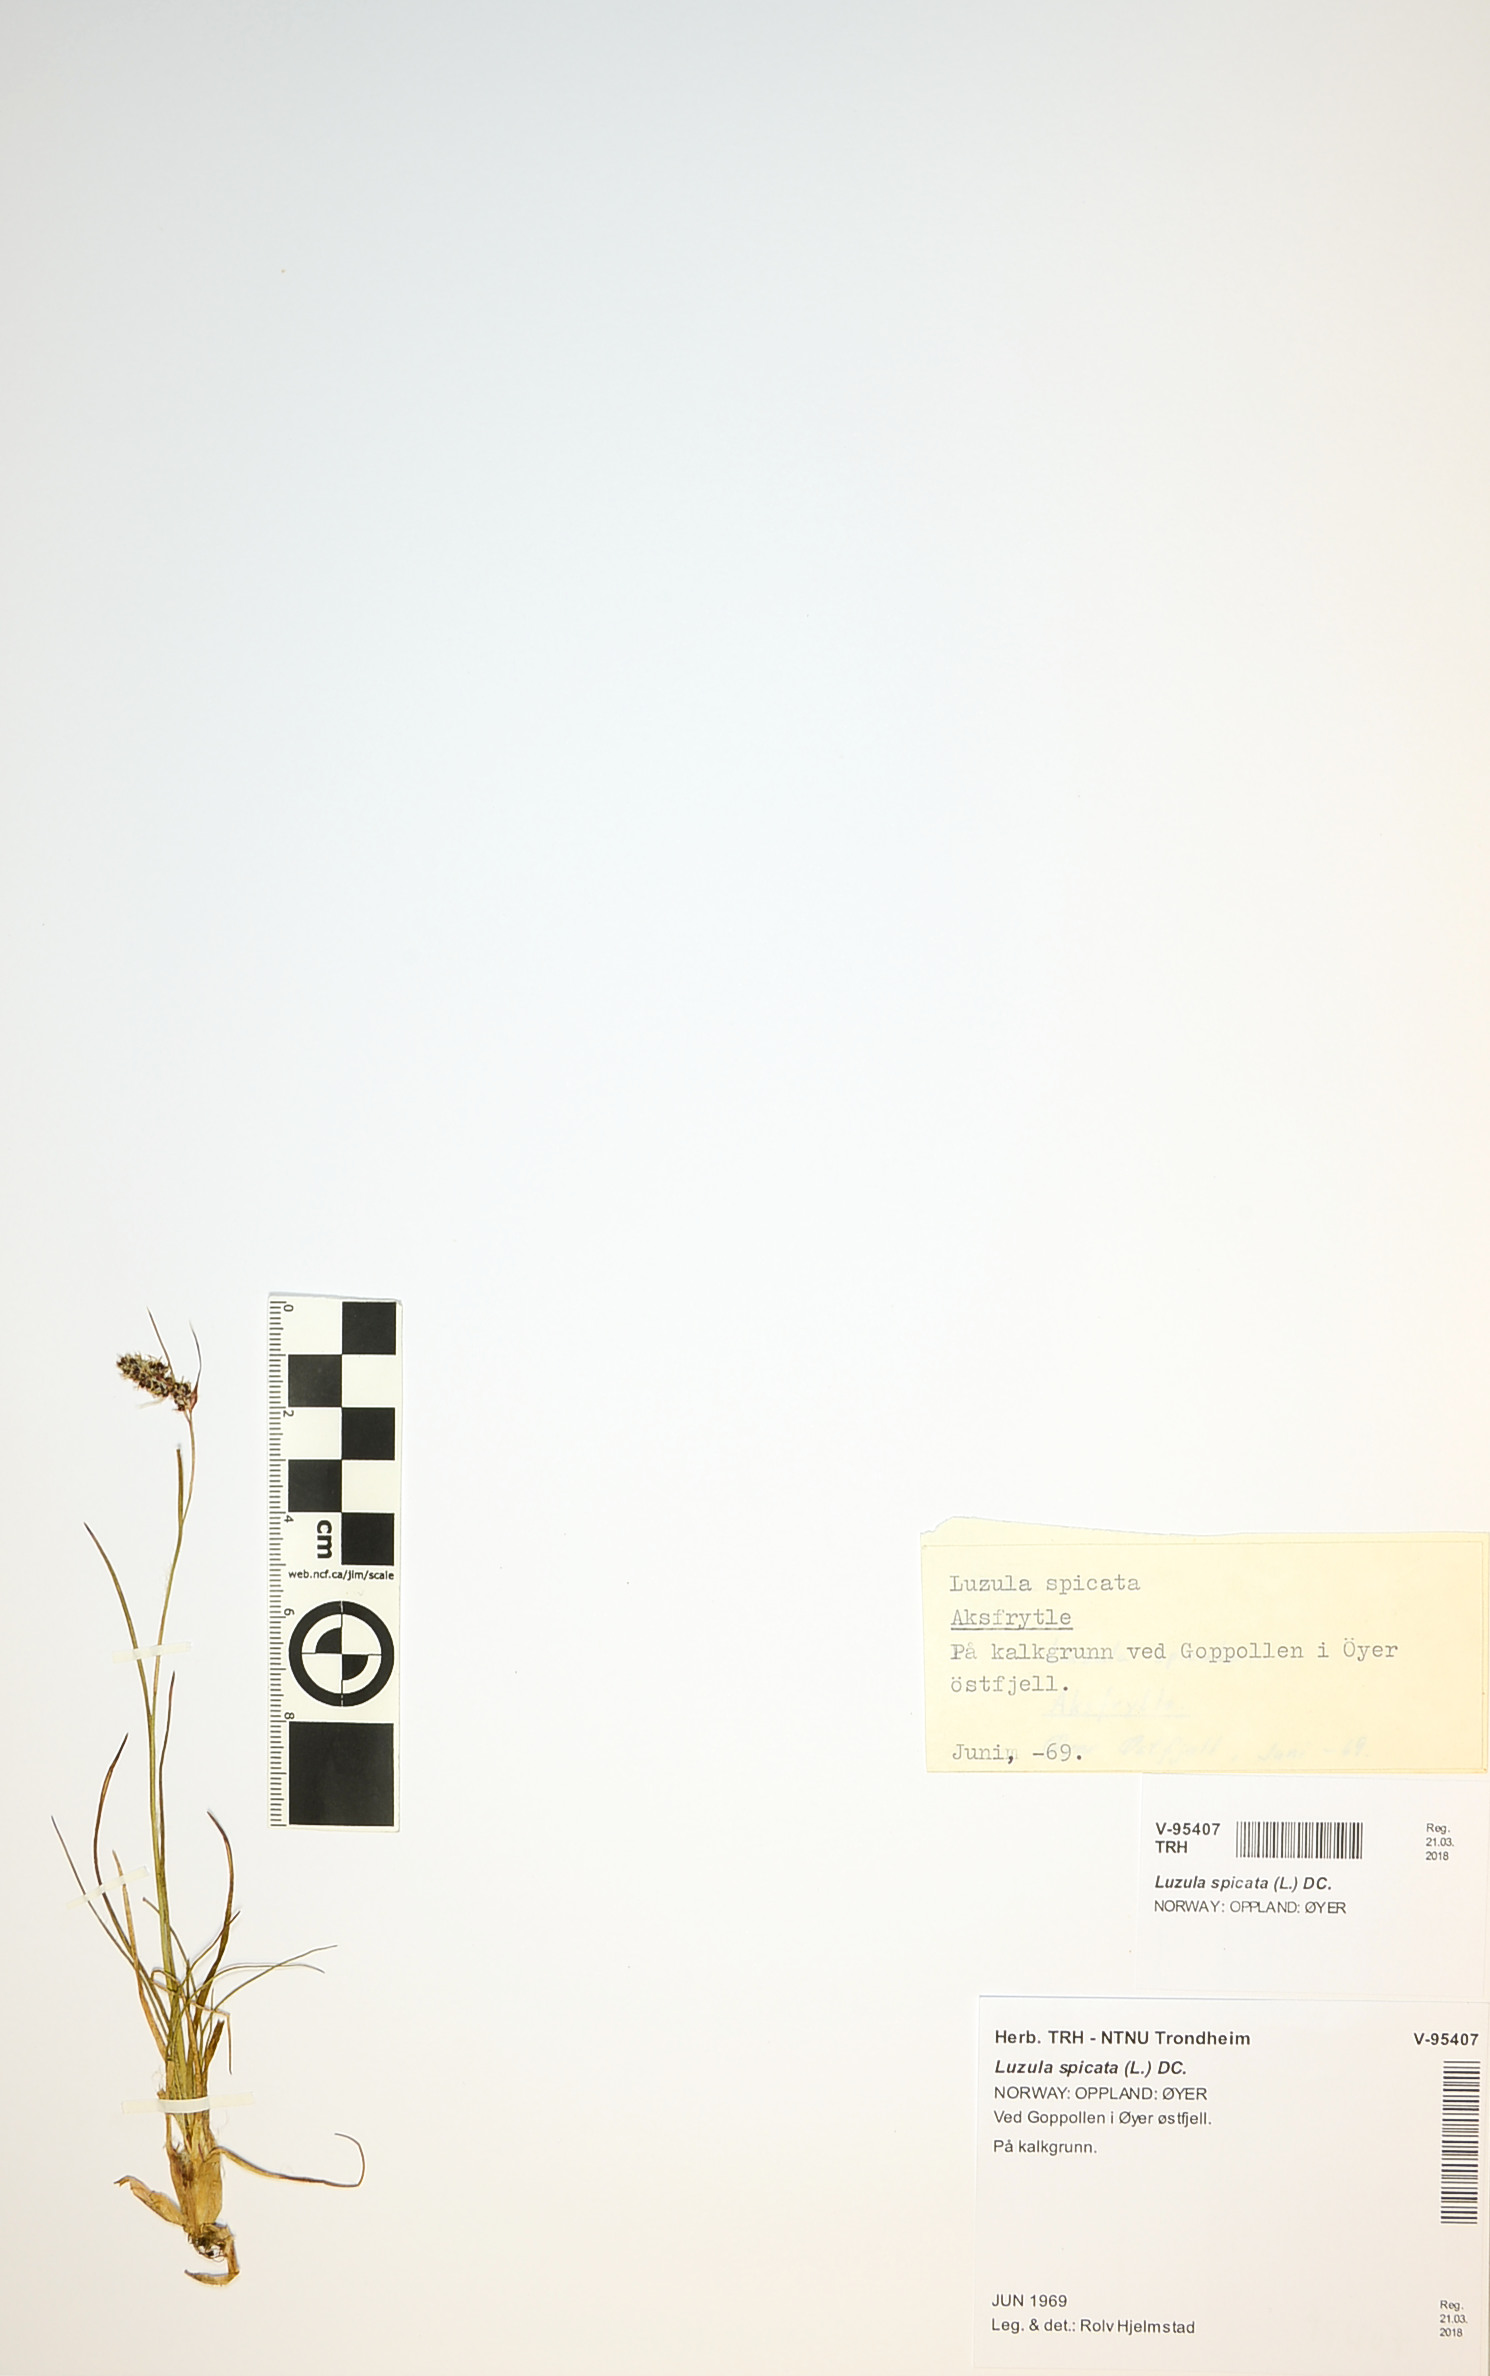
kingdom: Plantae
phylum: Tracheophyta
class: Liliopsida
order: Poales
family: Juncaceae
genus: Luzula
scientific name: Luzula spicata
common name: Spiked wood-rush
